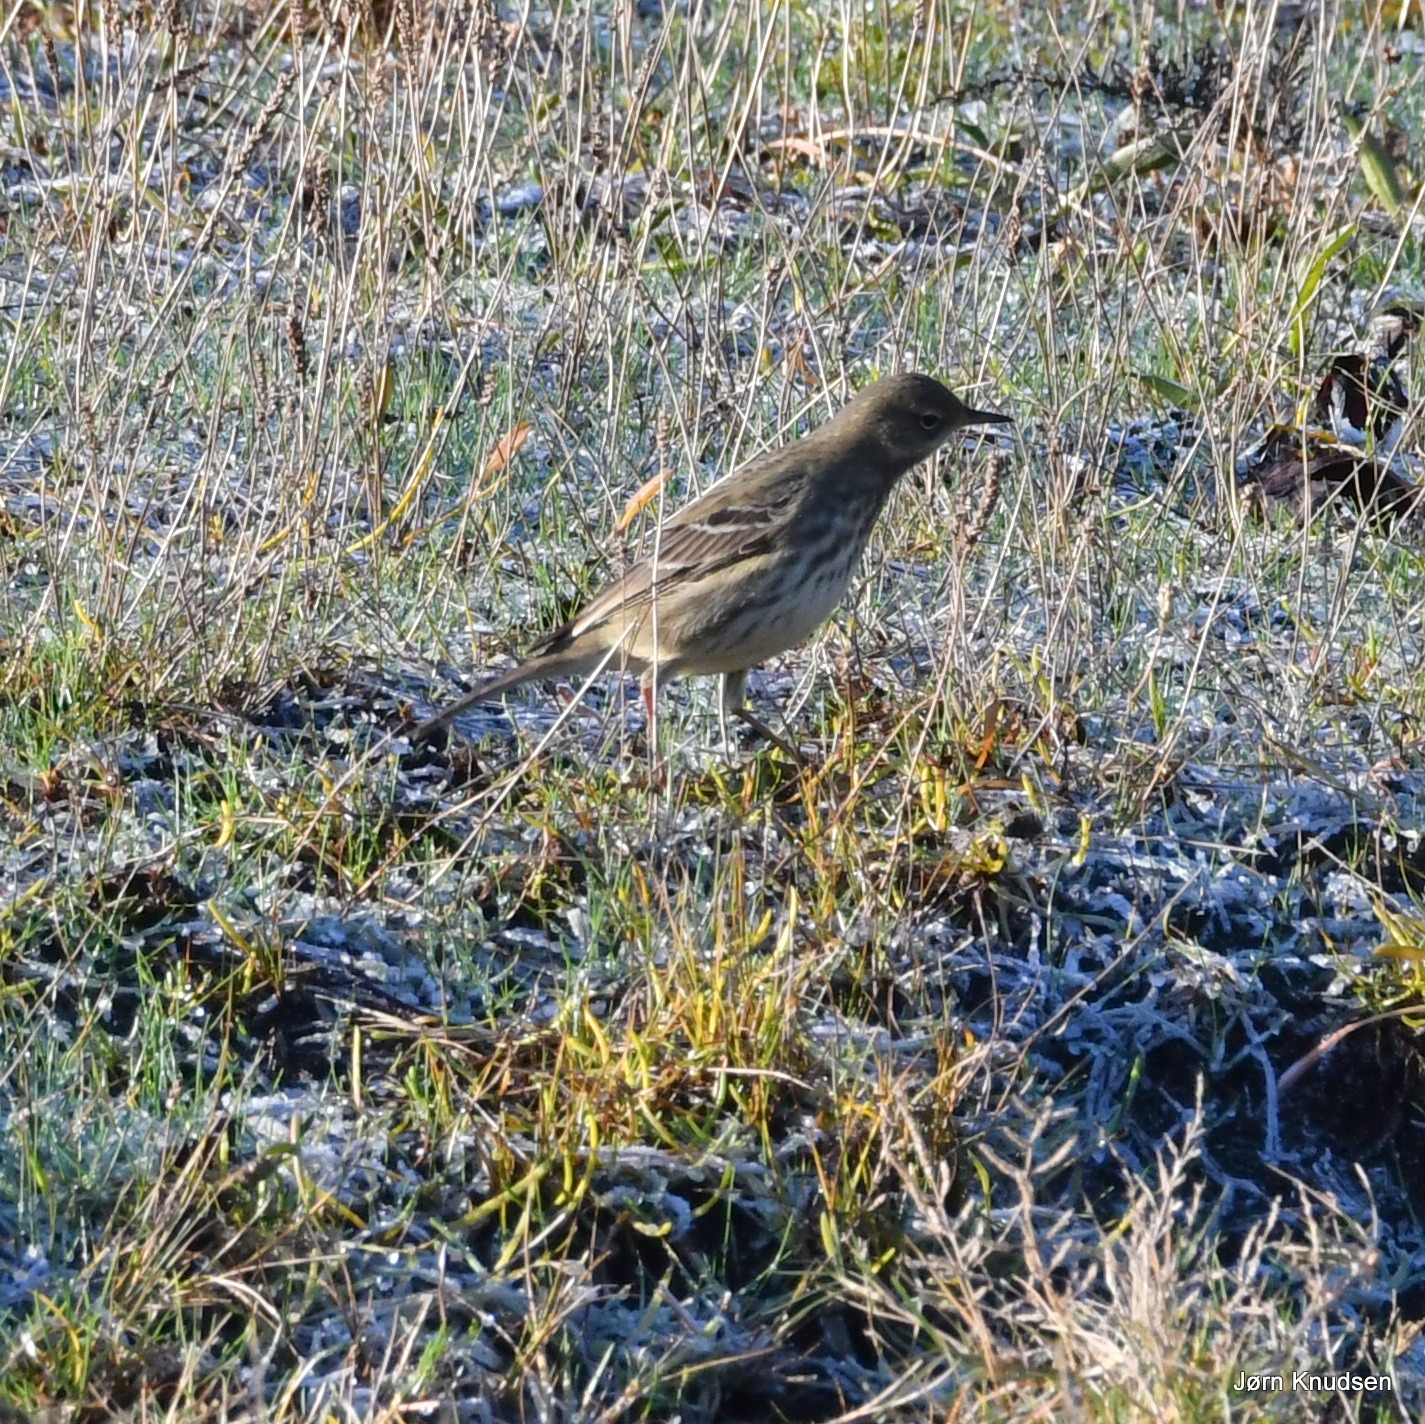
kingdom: Animalia
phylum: Chordata
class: Aves
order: Passeriformes
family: Motacillidae
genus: Anthus
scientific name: Anthus petrosus
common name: Skærpiber
